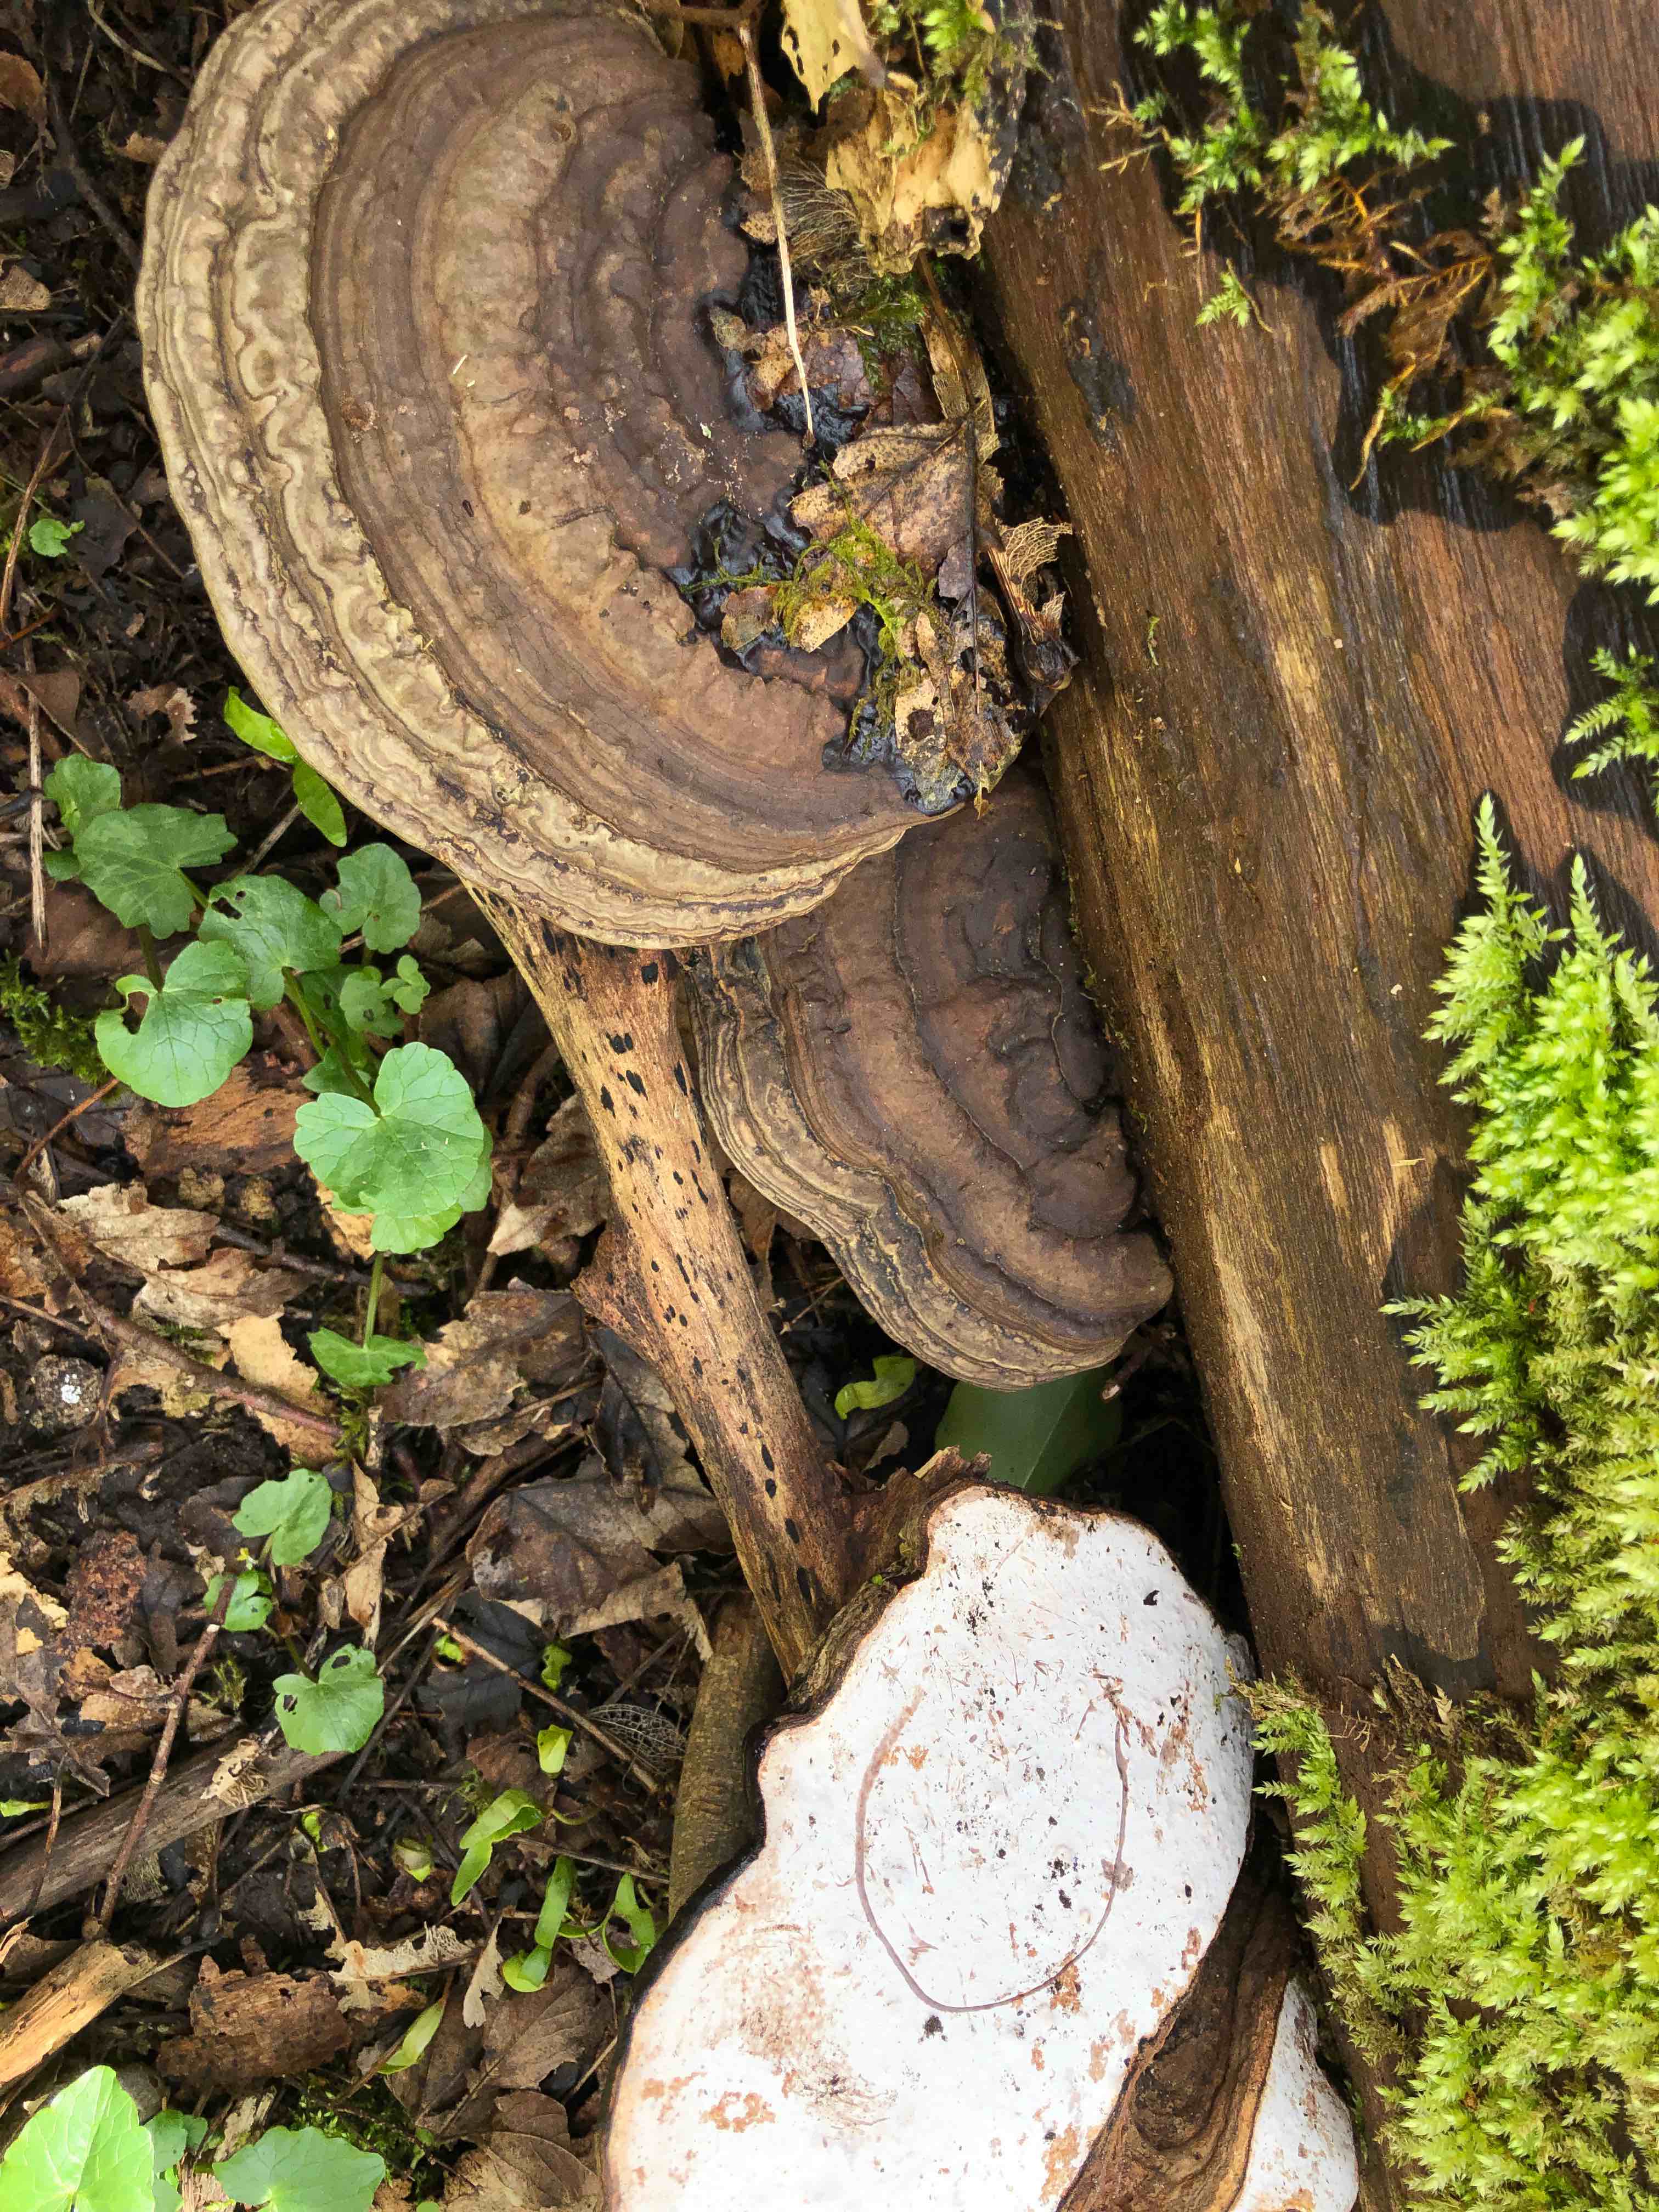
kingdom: Fungi
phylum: Basidiomycota
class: Agaricomycetes
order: Polyporales
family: Polyporaceae
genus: Ganoderma
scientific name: Ganoderma applanatum
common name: flad lakporesvamp
